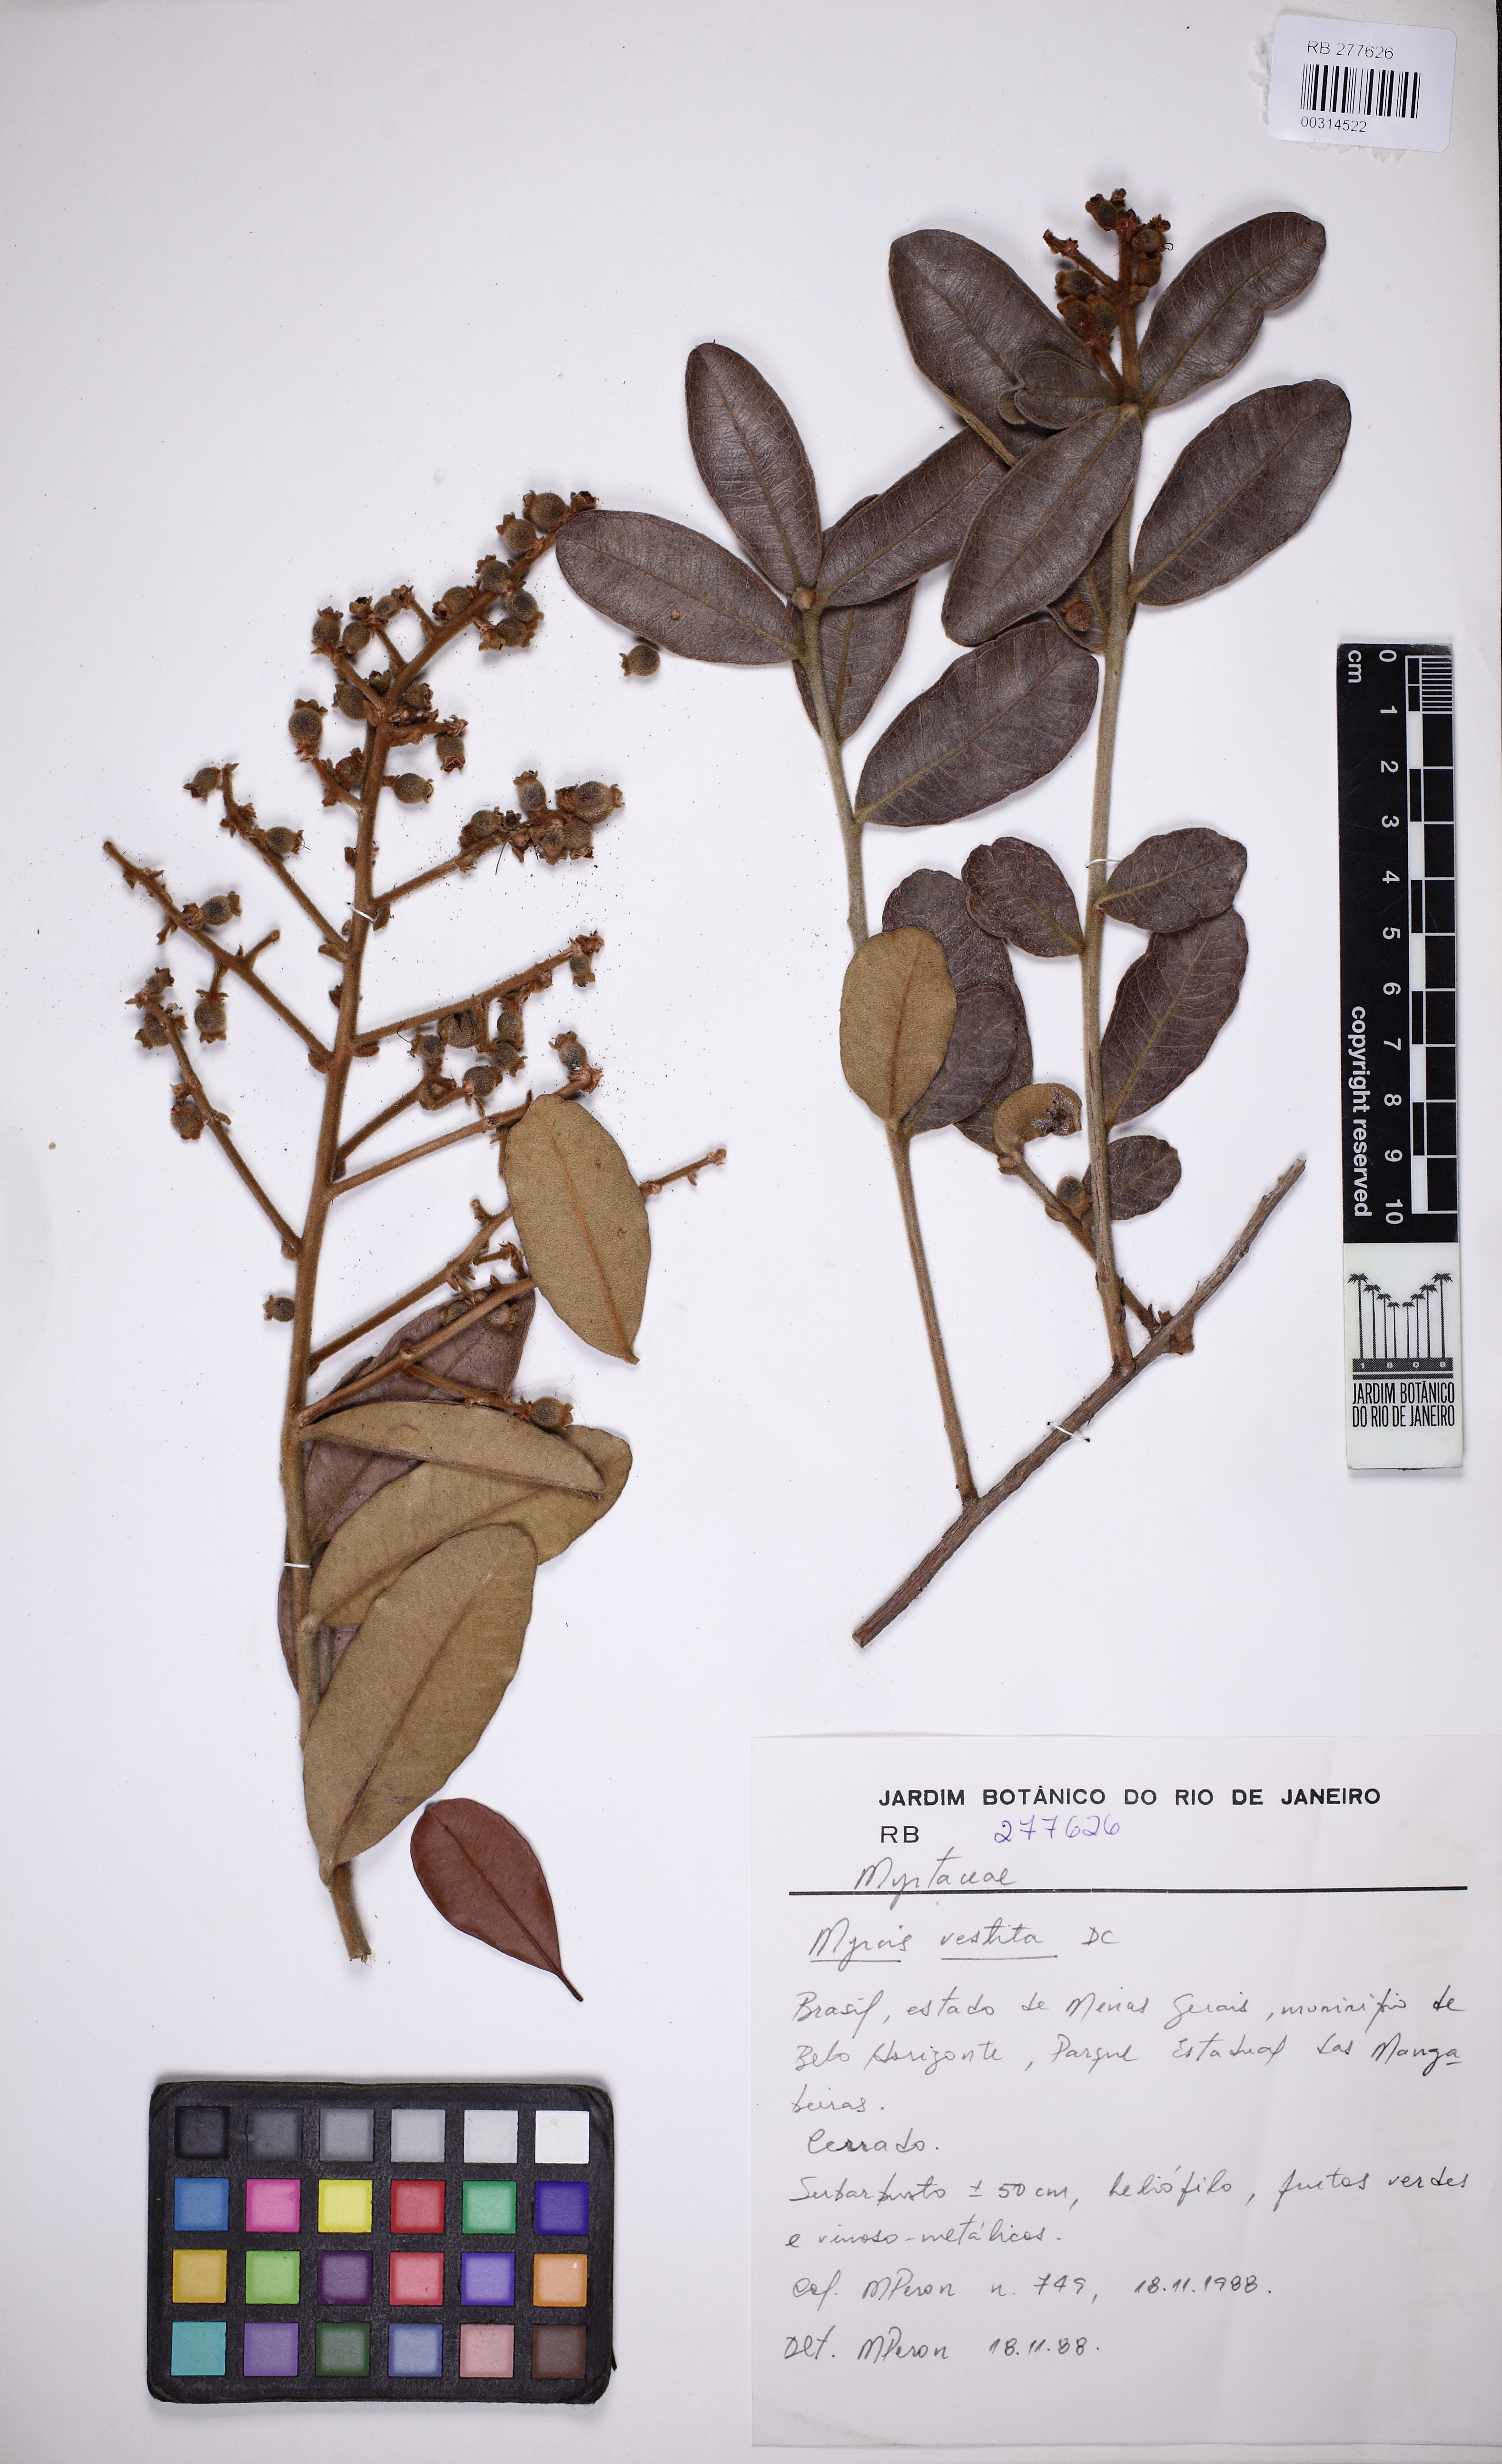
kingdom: Plantae
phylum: Tracheophyta
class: Magnoliopsida
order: Myrtales
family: Myrtaceae
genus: Myrcia
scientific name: Myrcia vestita
